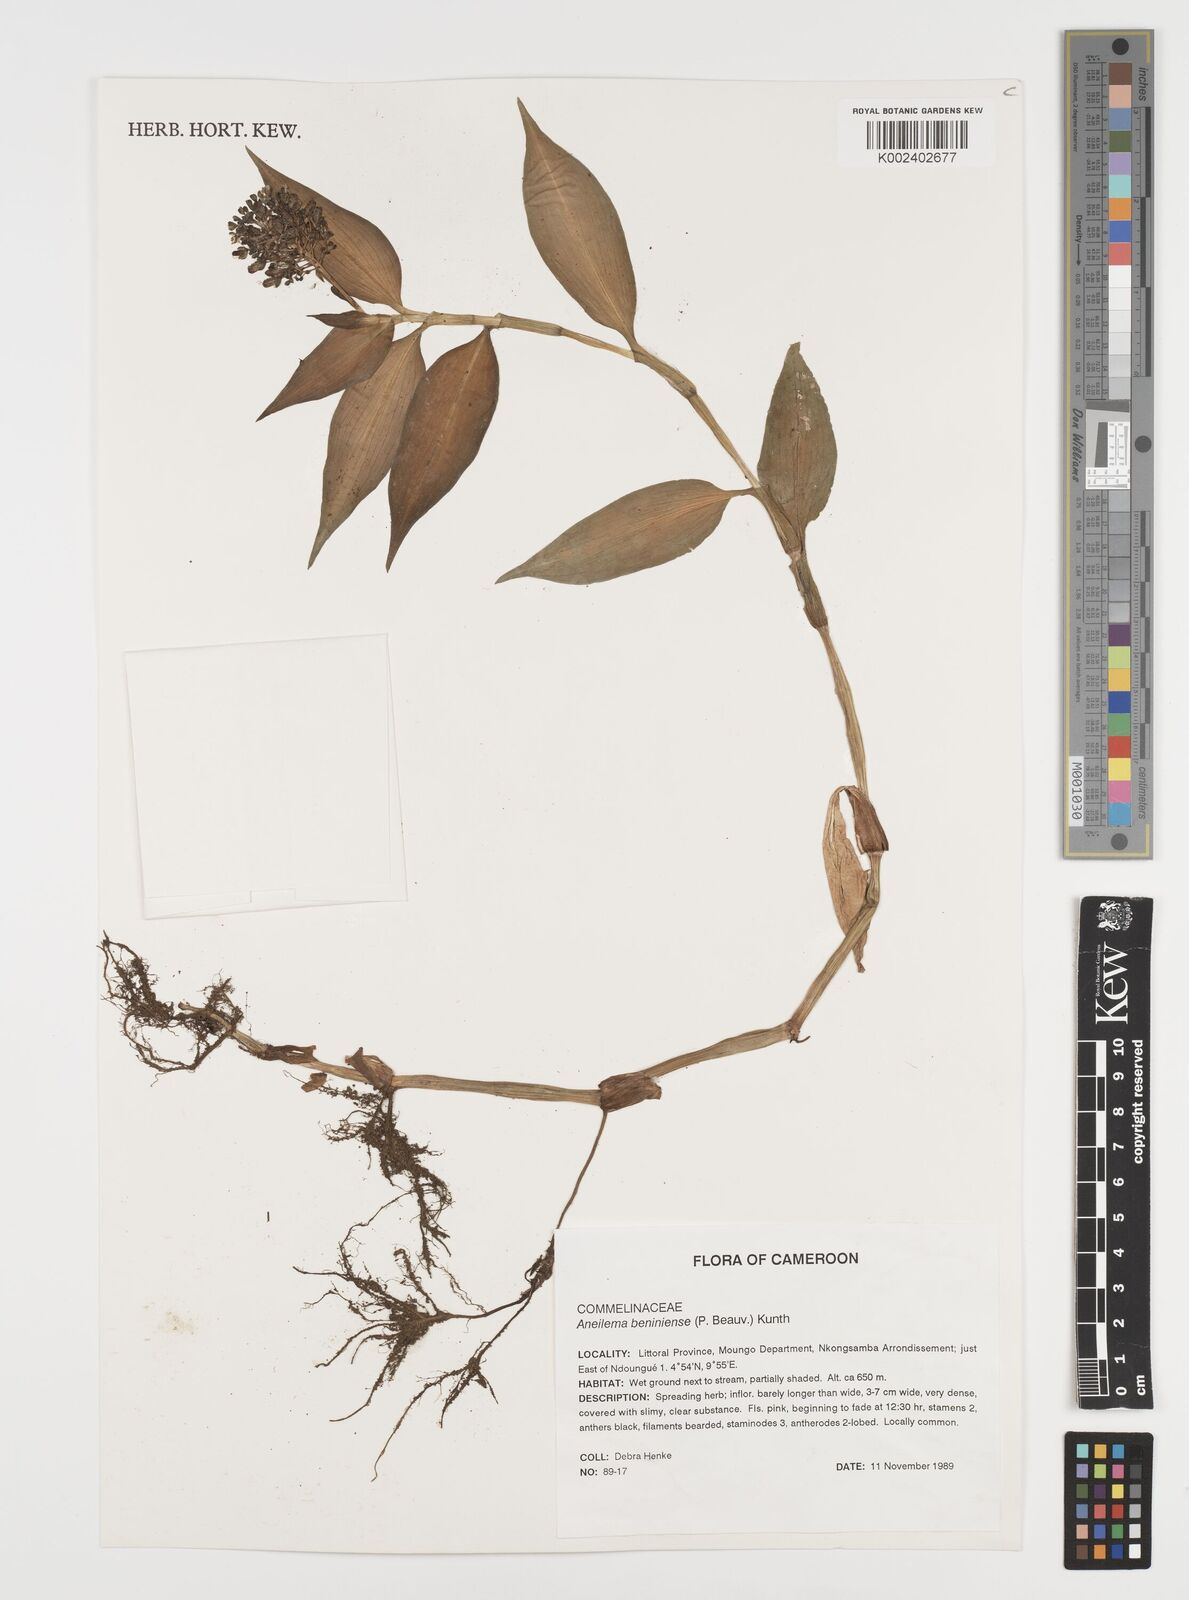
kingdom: Plantae
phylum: Tracheophyta
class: Liliopsida
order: Commelinales
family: Commelinaceae
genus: Aneilema
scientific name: Aneilema beniniense
